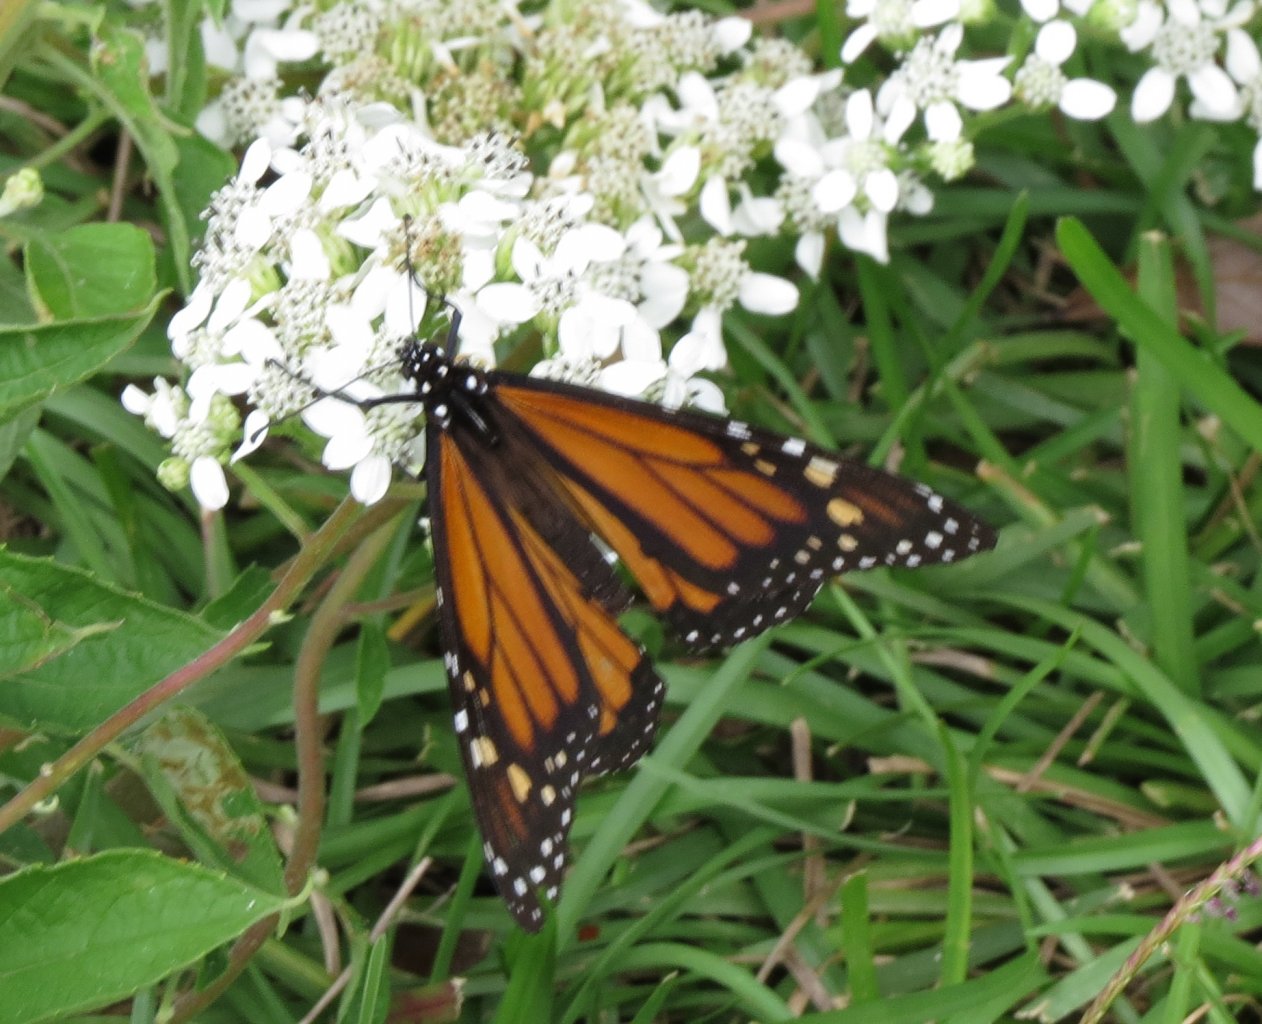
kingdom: Animalia
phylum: Arthropoda
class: Insecta
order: Lepidoptera
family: Nymphalidae
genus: Danaus
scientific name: Danaus plexippus
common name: Monarch
